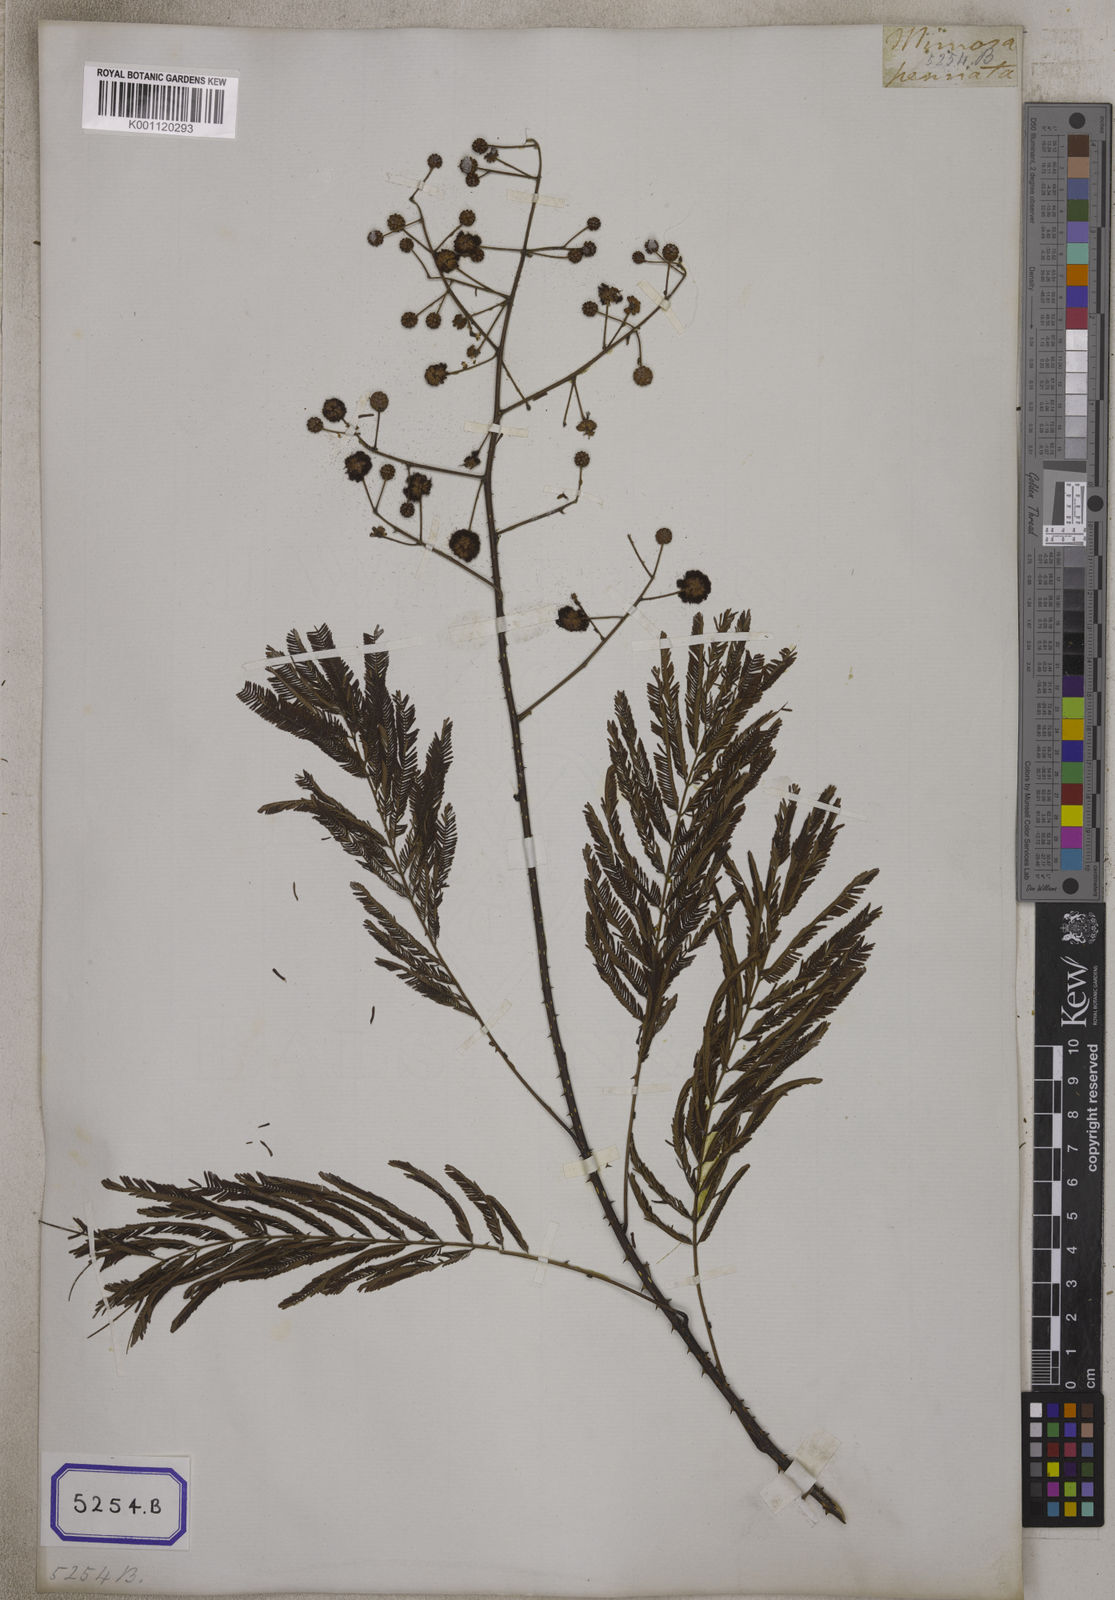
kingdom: Plantae
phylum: Tracheophyta
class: Magnoliopsida
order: Fabales
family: Fabaceae
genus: Senegalia
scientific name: Senegalia pennata
